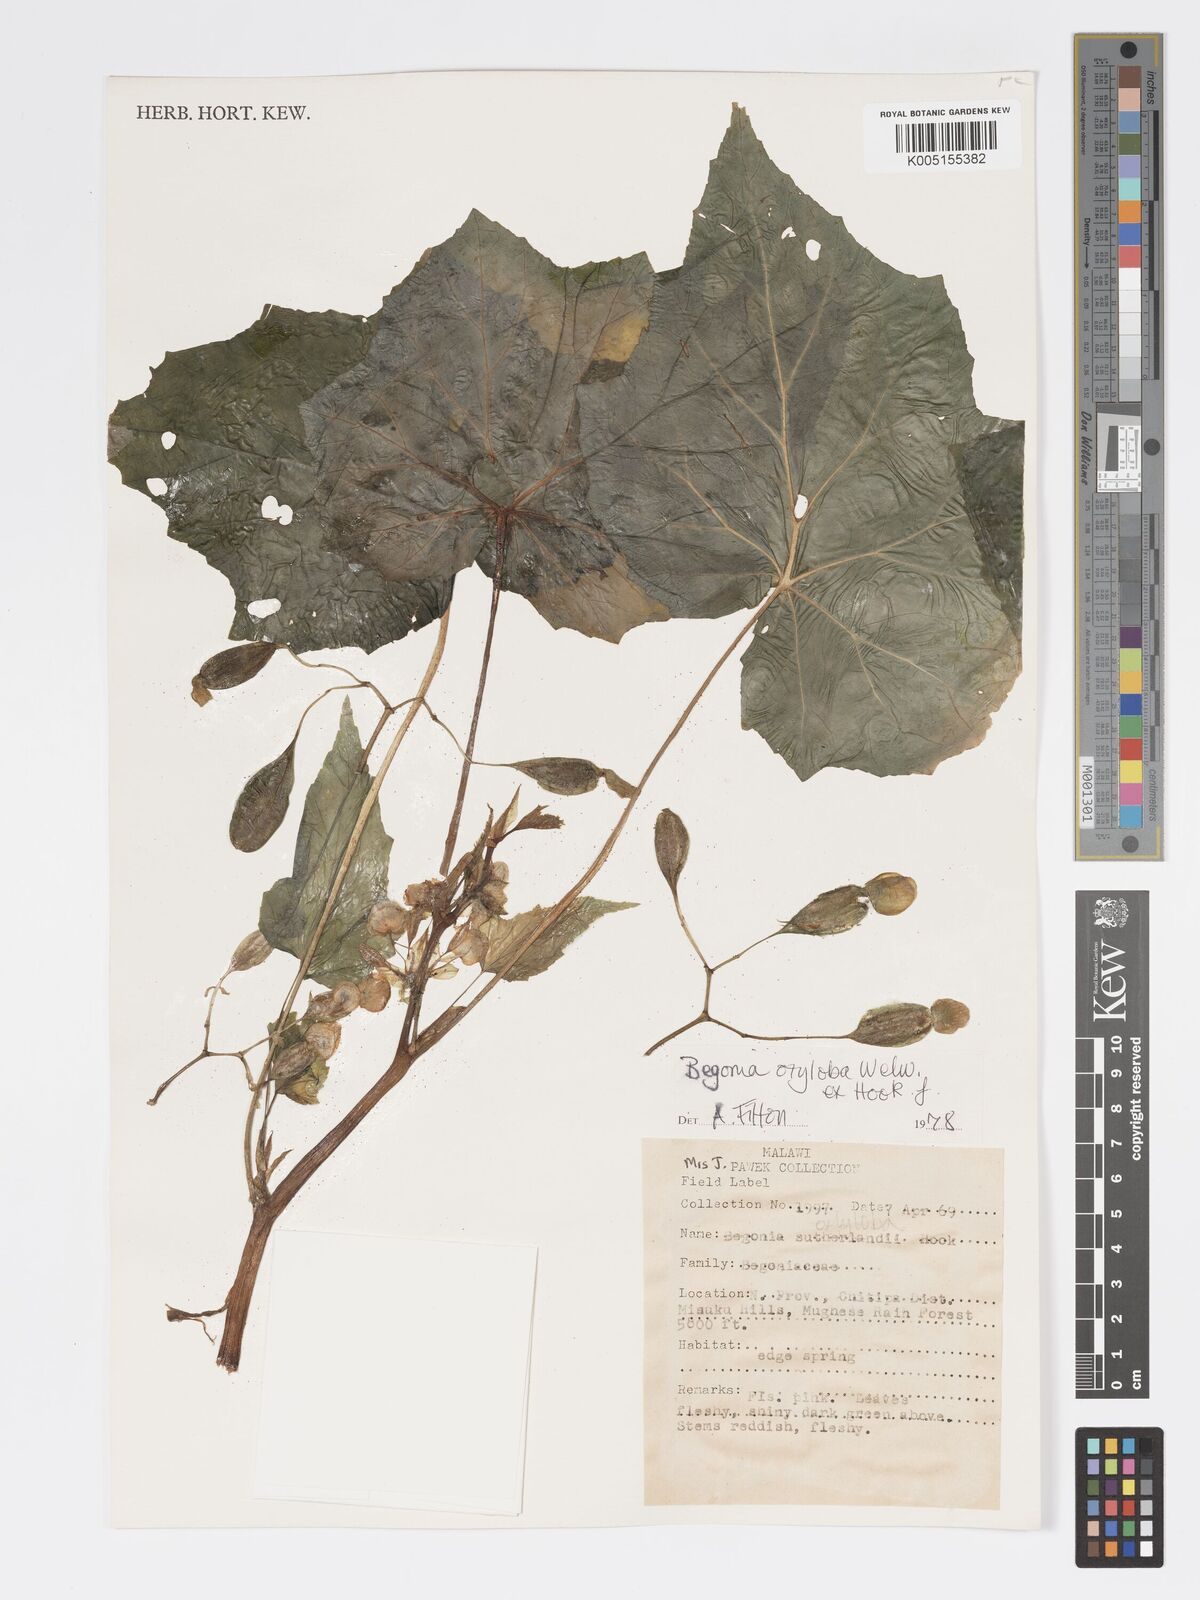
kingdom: Plantae
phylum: Tracheophyta
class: Magnoliopsida
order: Cucurbitales
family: Begoniaceae
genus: Begonia
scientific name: Begonia oxyloba
